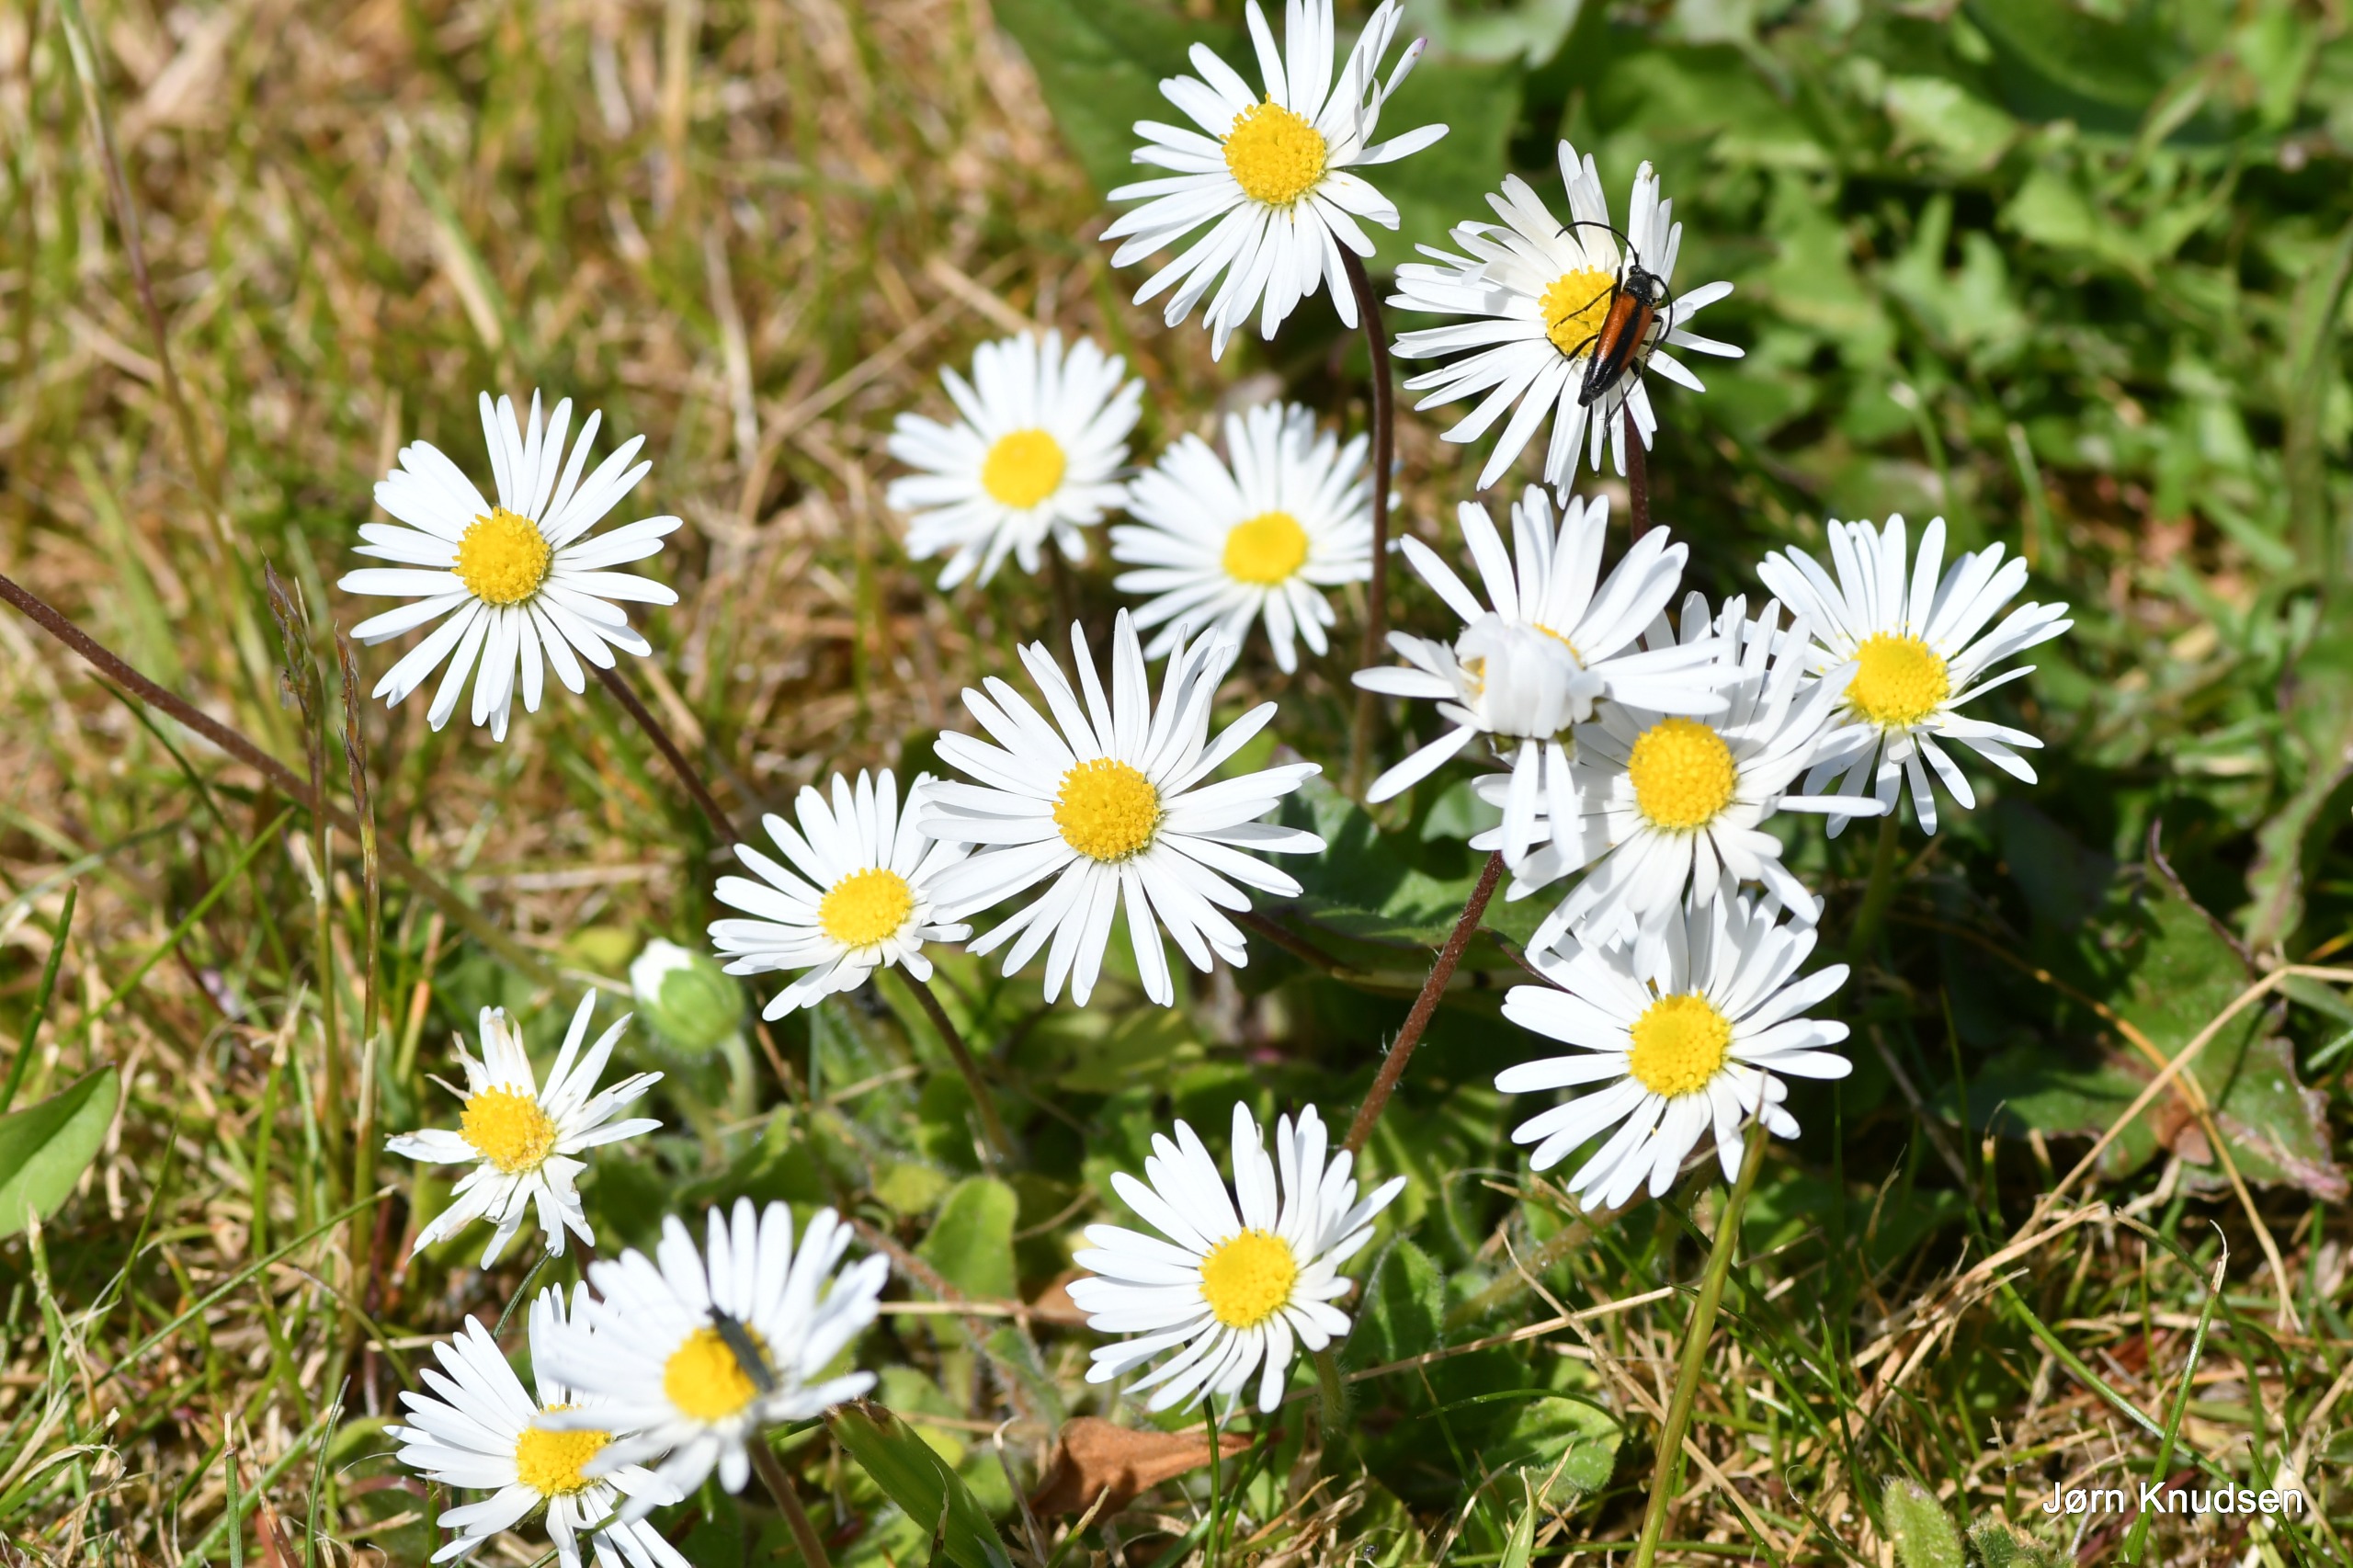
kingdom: Plantae
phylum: Tracheophyta
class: Magnoliopsida
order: Asterales
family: Asteraceae
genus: Bellis
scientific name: Bellis perennis
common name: Tusindfryd
